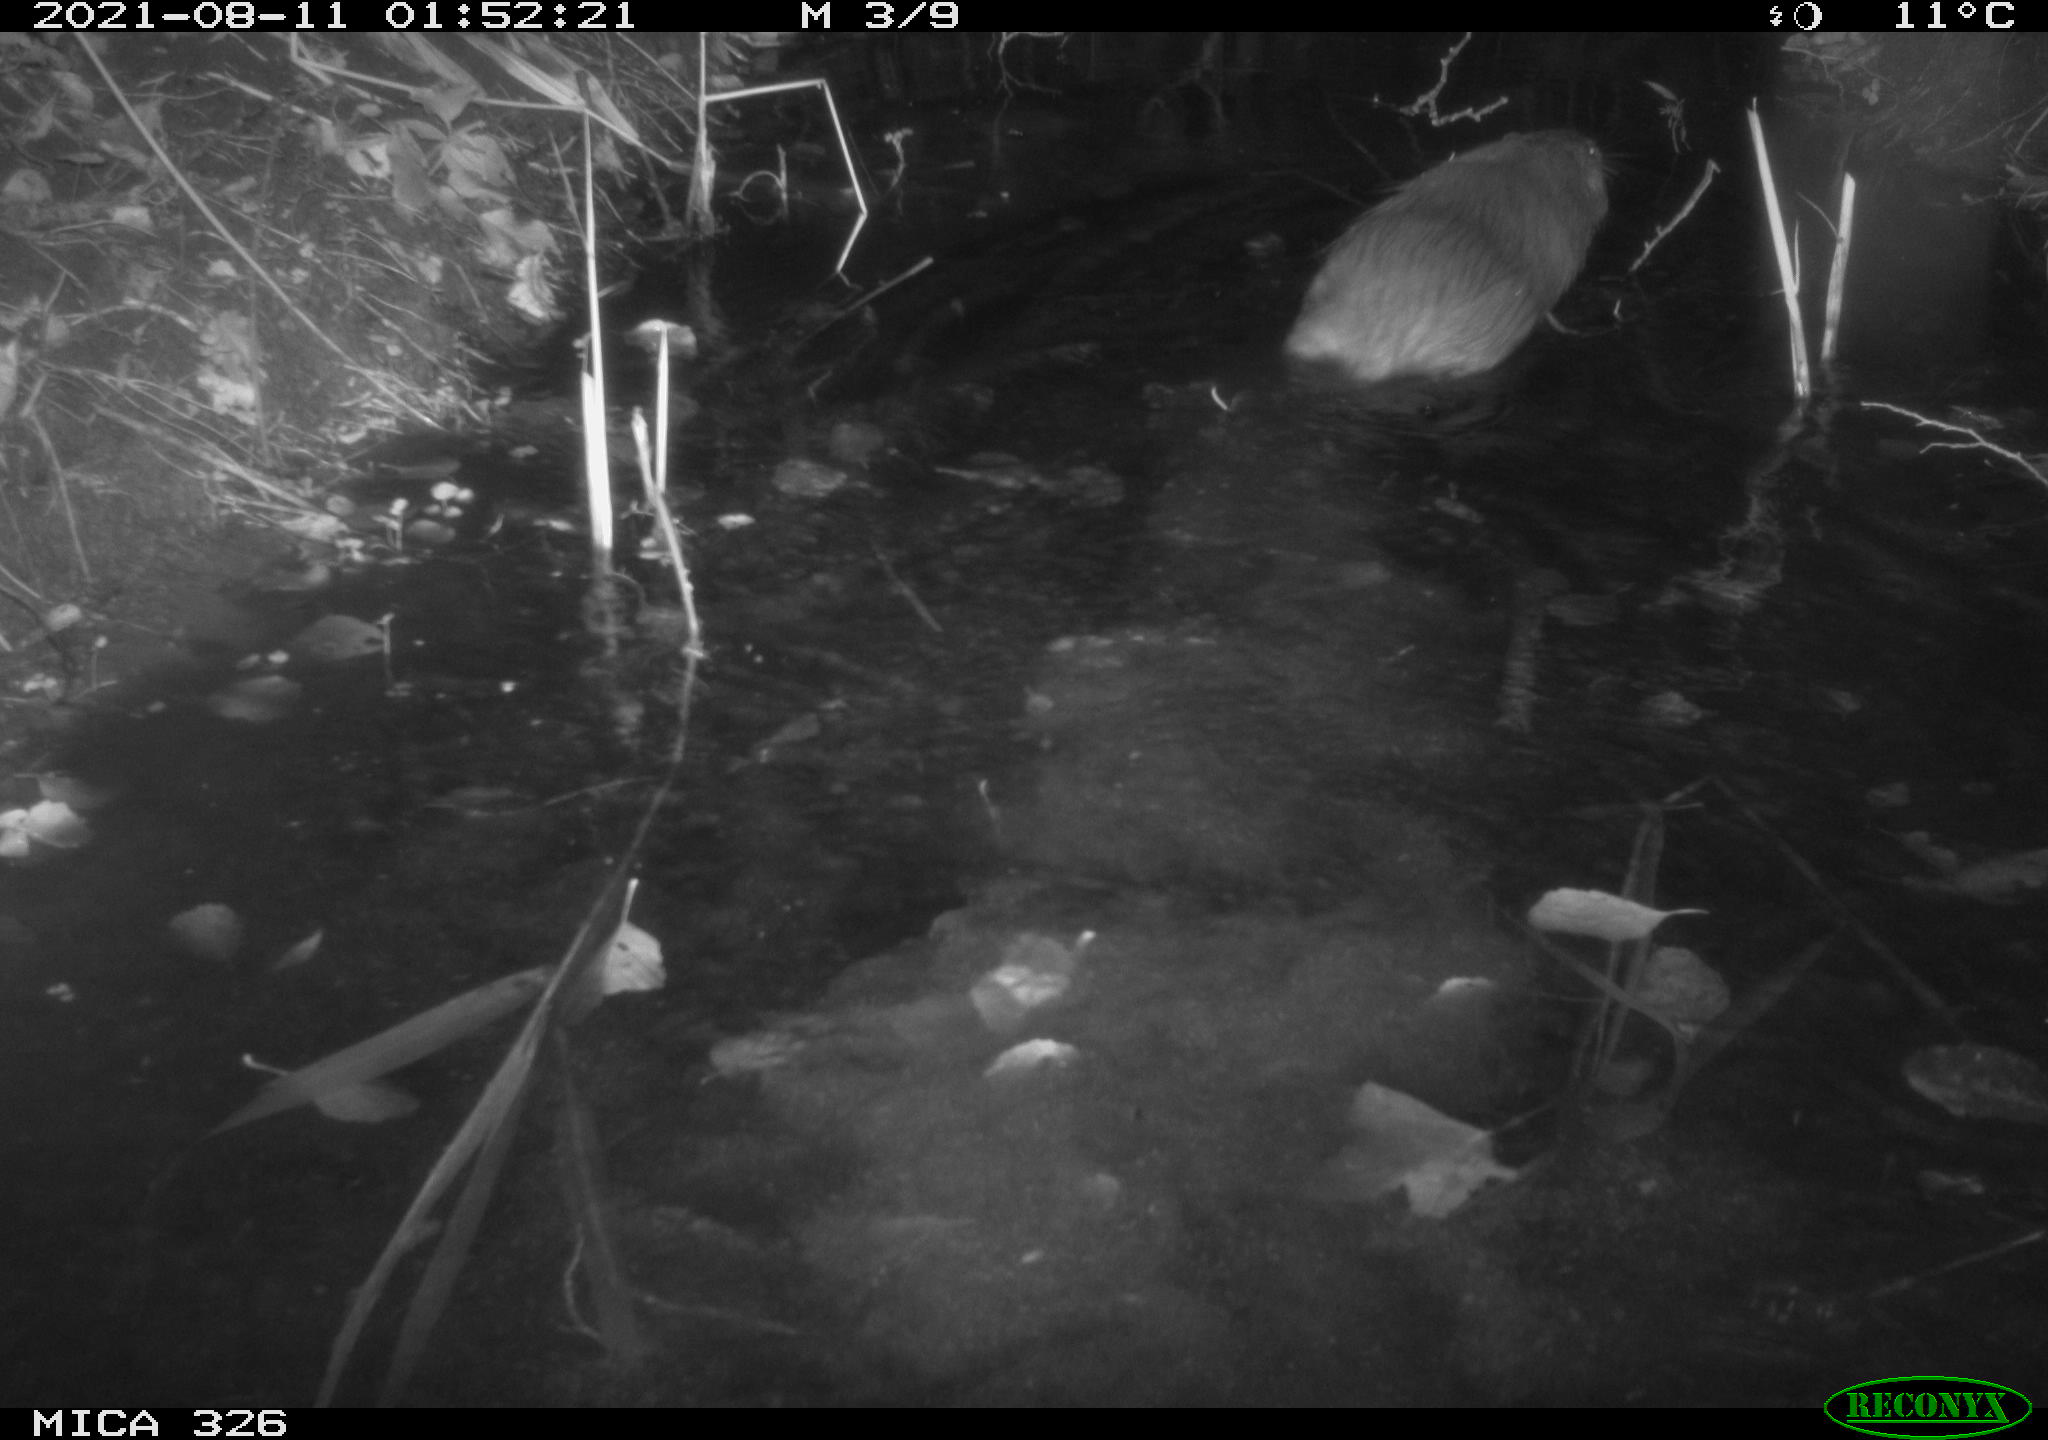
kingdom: Animalia
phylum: Chordata
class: Mammalia
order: Rodentia
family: Myocastoridae
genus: Myocastor
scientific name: Myocastor coypus
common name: Coypu
